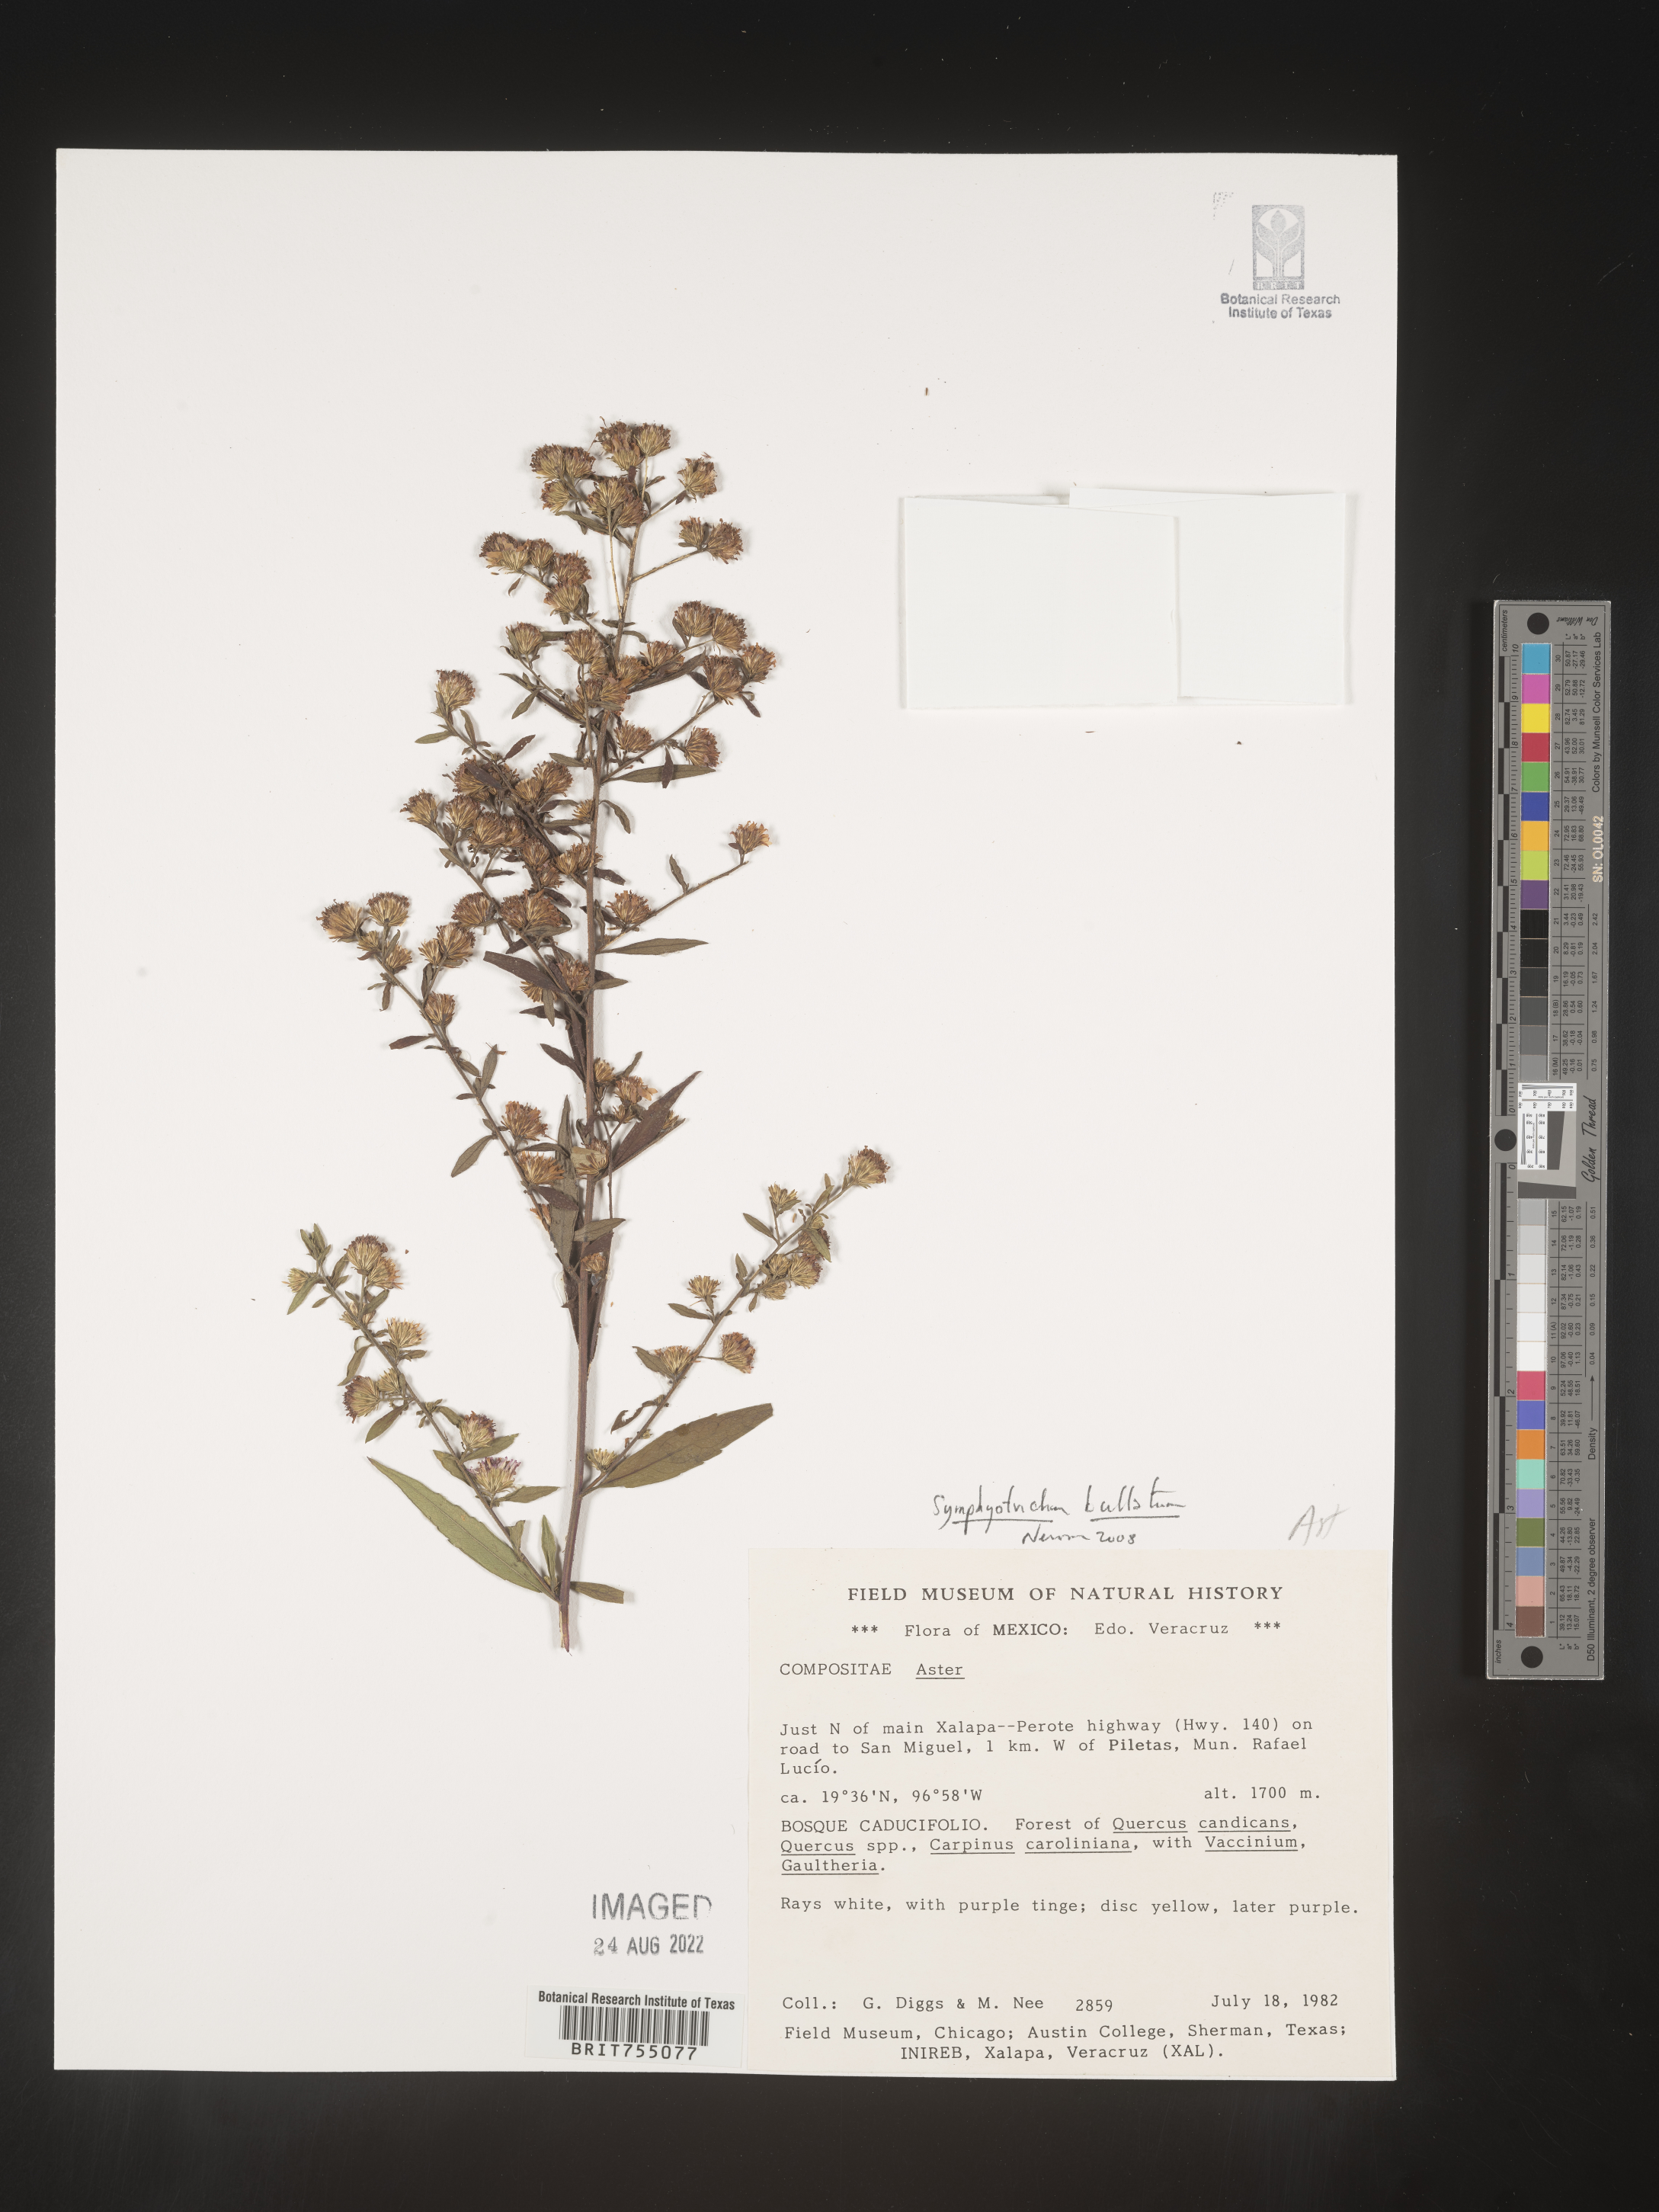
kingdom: Plantae
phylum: Tracheophyta
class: Magnoliopsida
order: Asterales
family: Asteraceae
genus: Symphyotrichum
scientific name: Symphyotrichum bullatum
